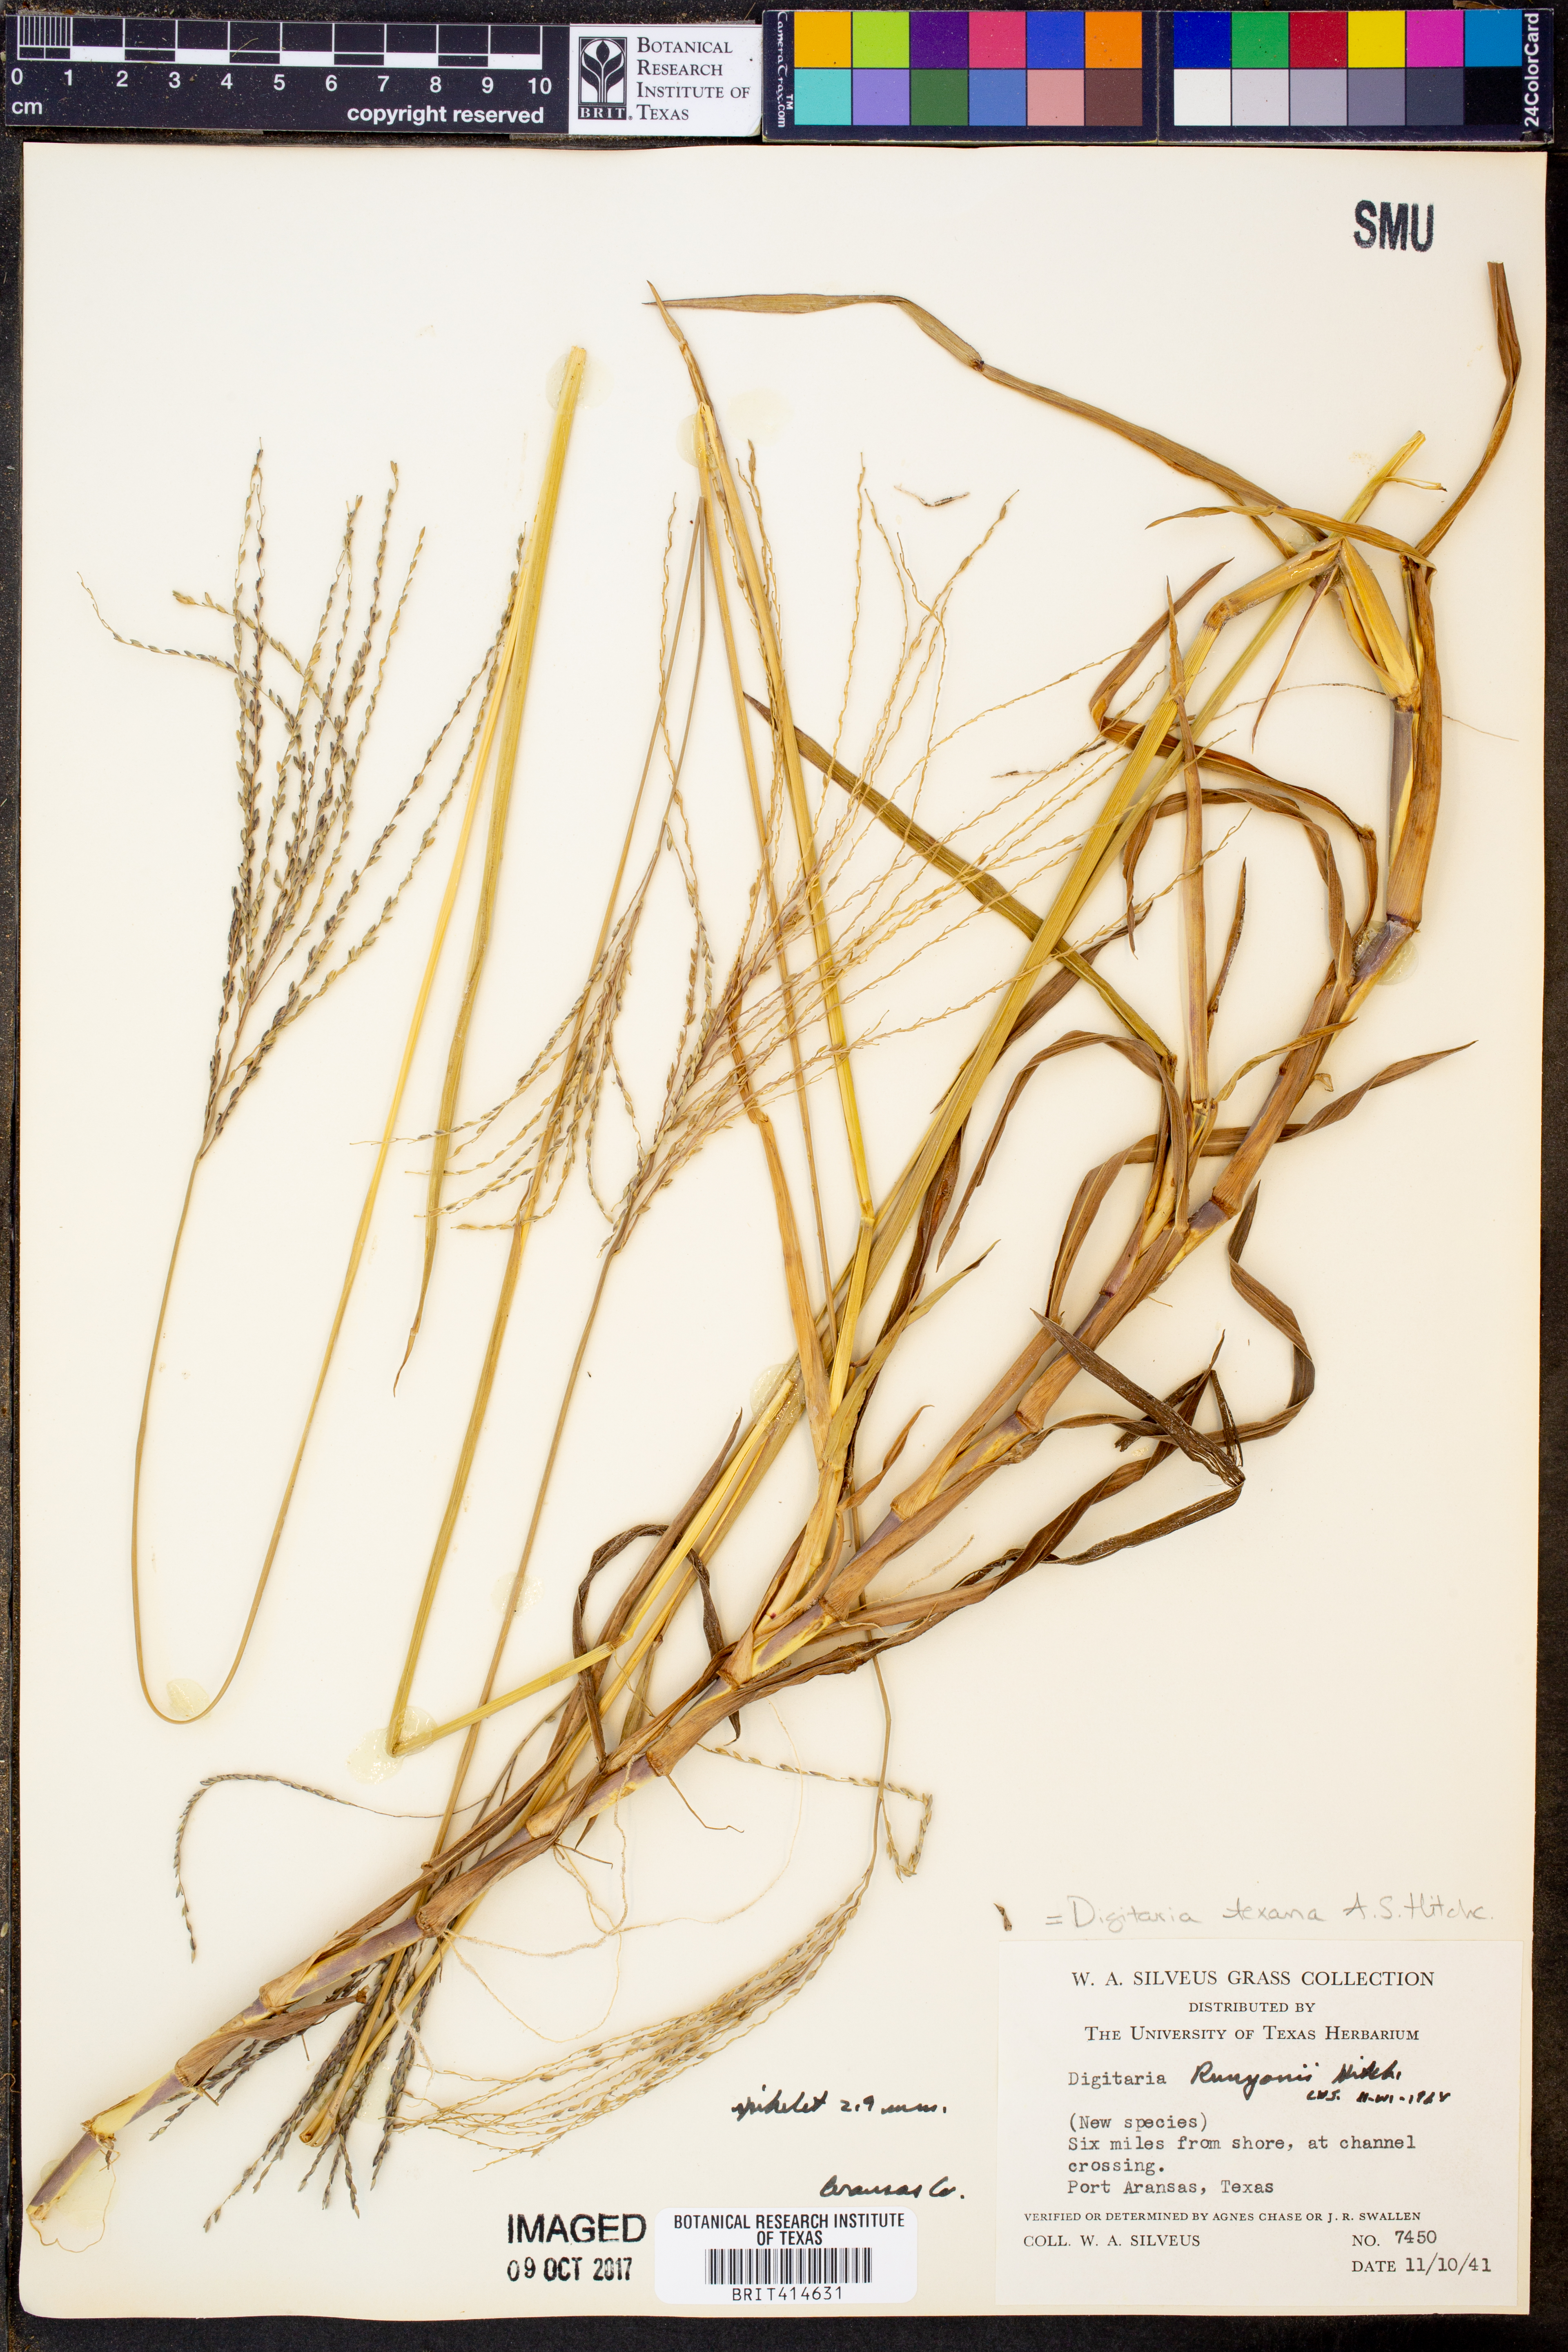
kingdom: Plantae
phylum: Tracheophyta
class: Liliopsida
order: Poales
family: Poaceae
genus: Digitaria
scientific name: Digitaria texana
